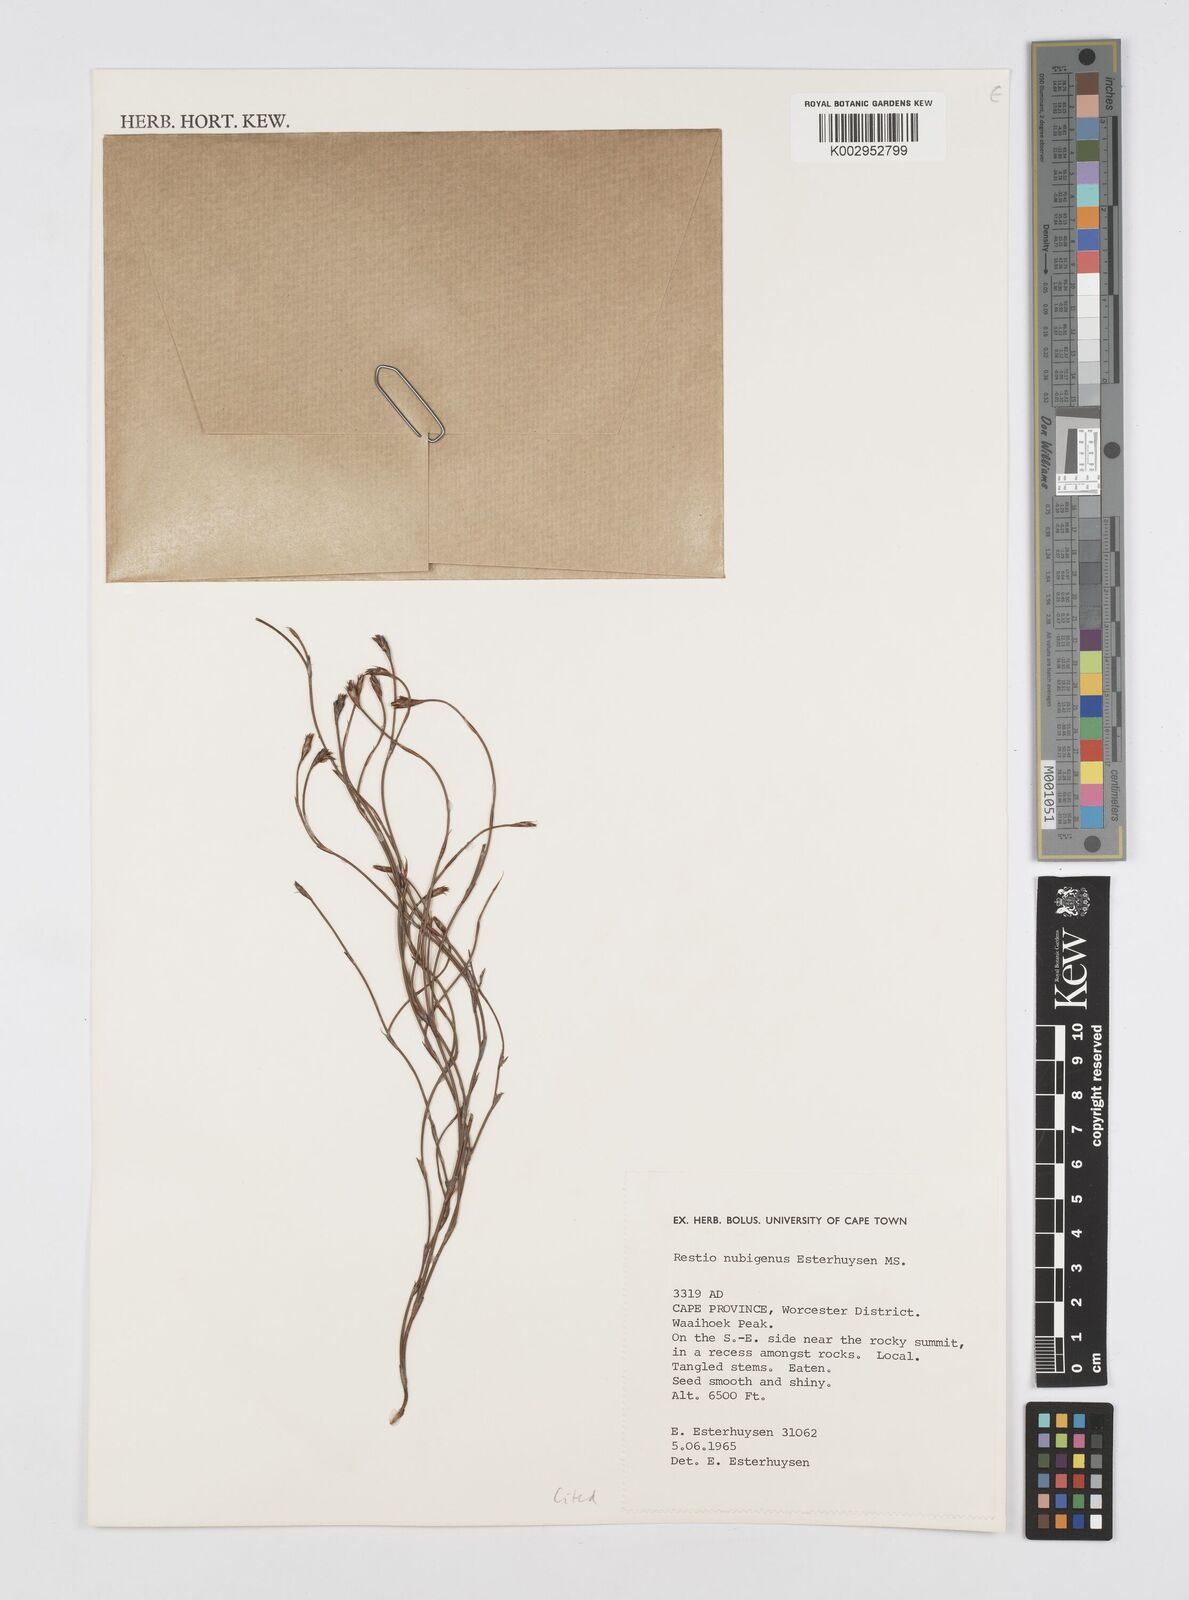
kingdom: Plantae
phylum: Tracheophyta
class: Liliopsida
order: Poales
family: Restionaceae
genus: Restio
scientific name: Restio nubigenus
